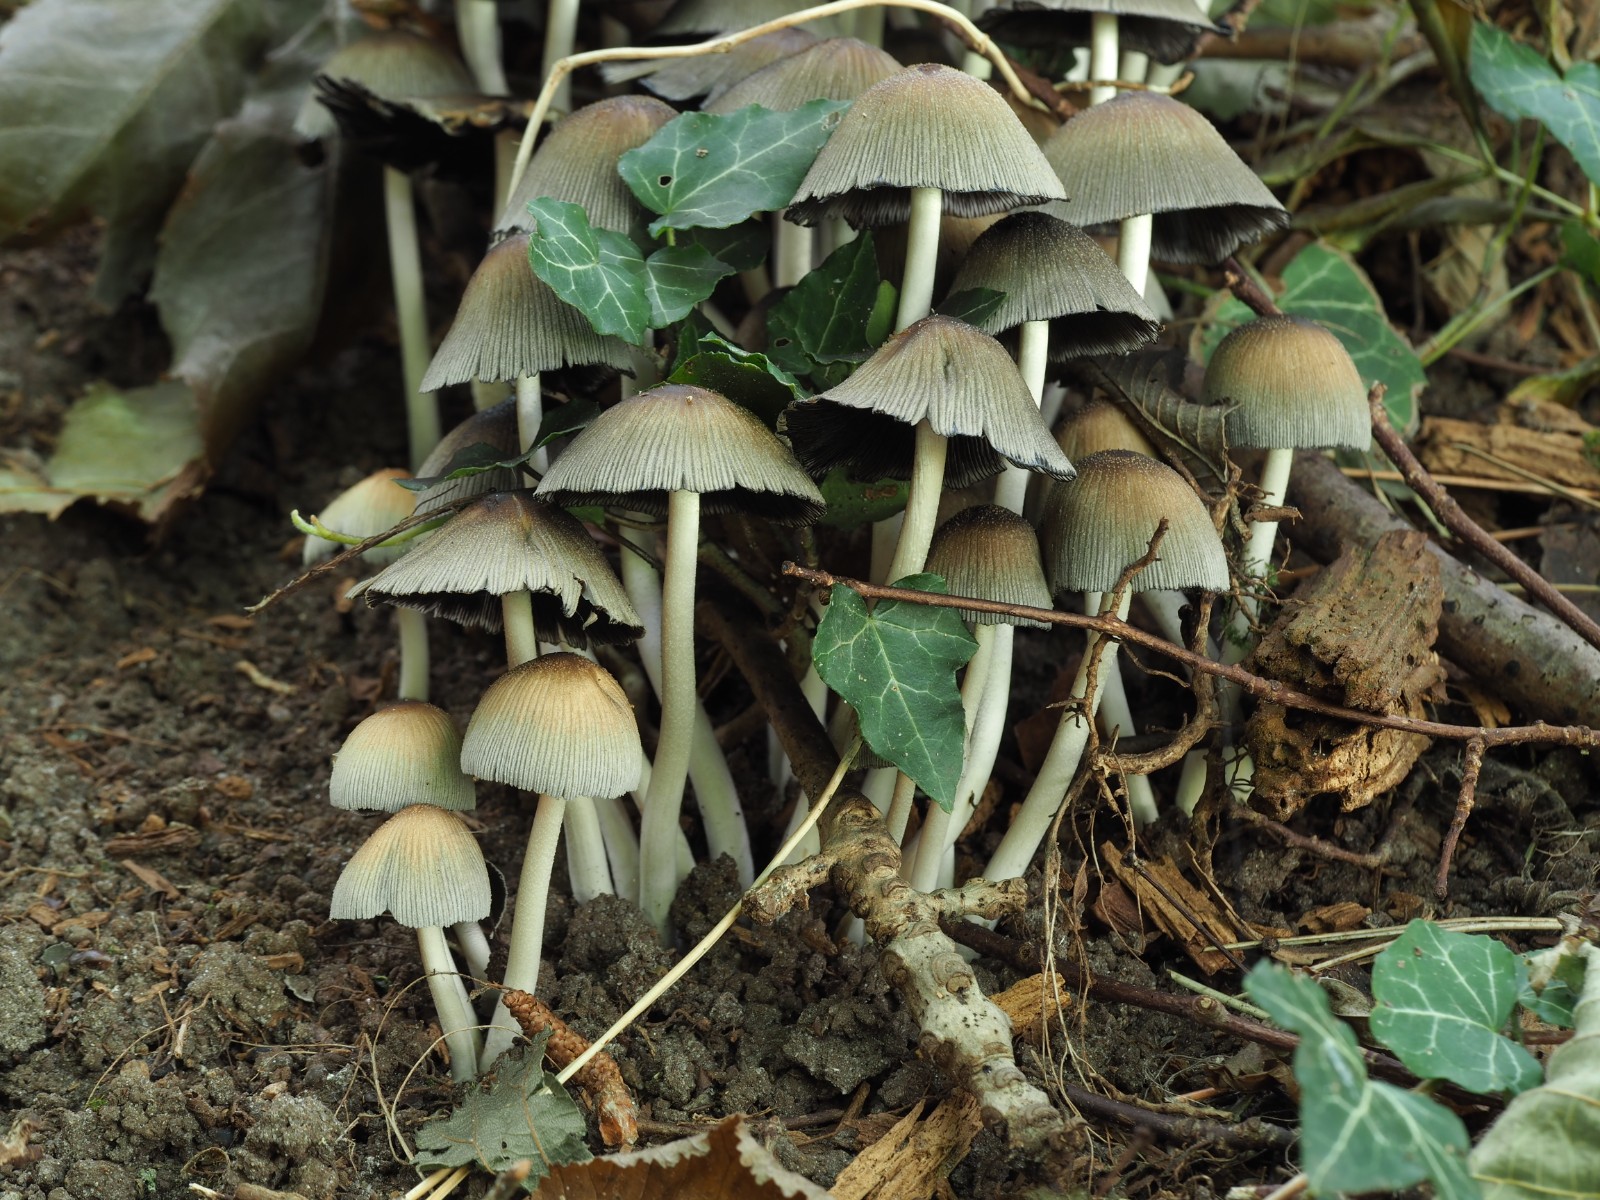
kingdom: Fungi
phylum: Basidiomycota
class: Agaricomycetes
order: Agaricales
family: Psathyrellaceae
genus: Coprinellus
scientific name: Coprinellus micaceus
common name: glimmer-blækhat
